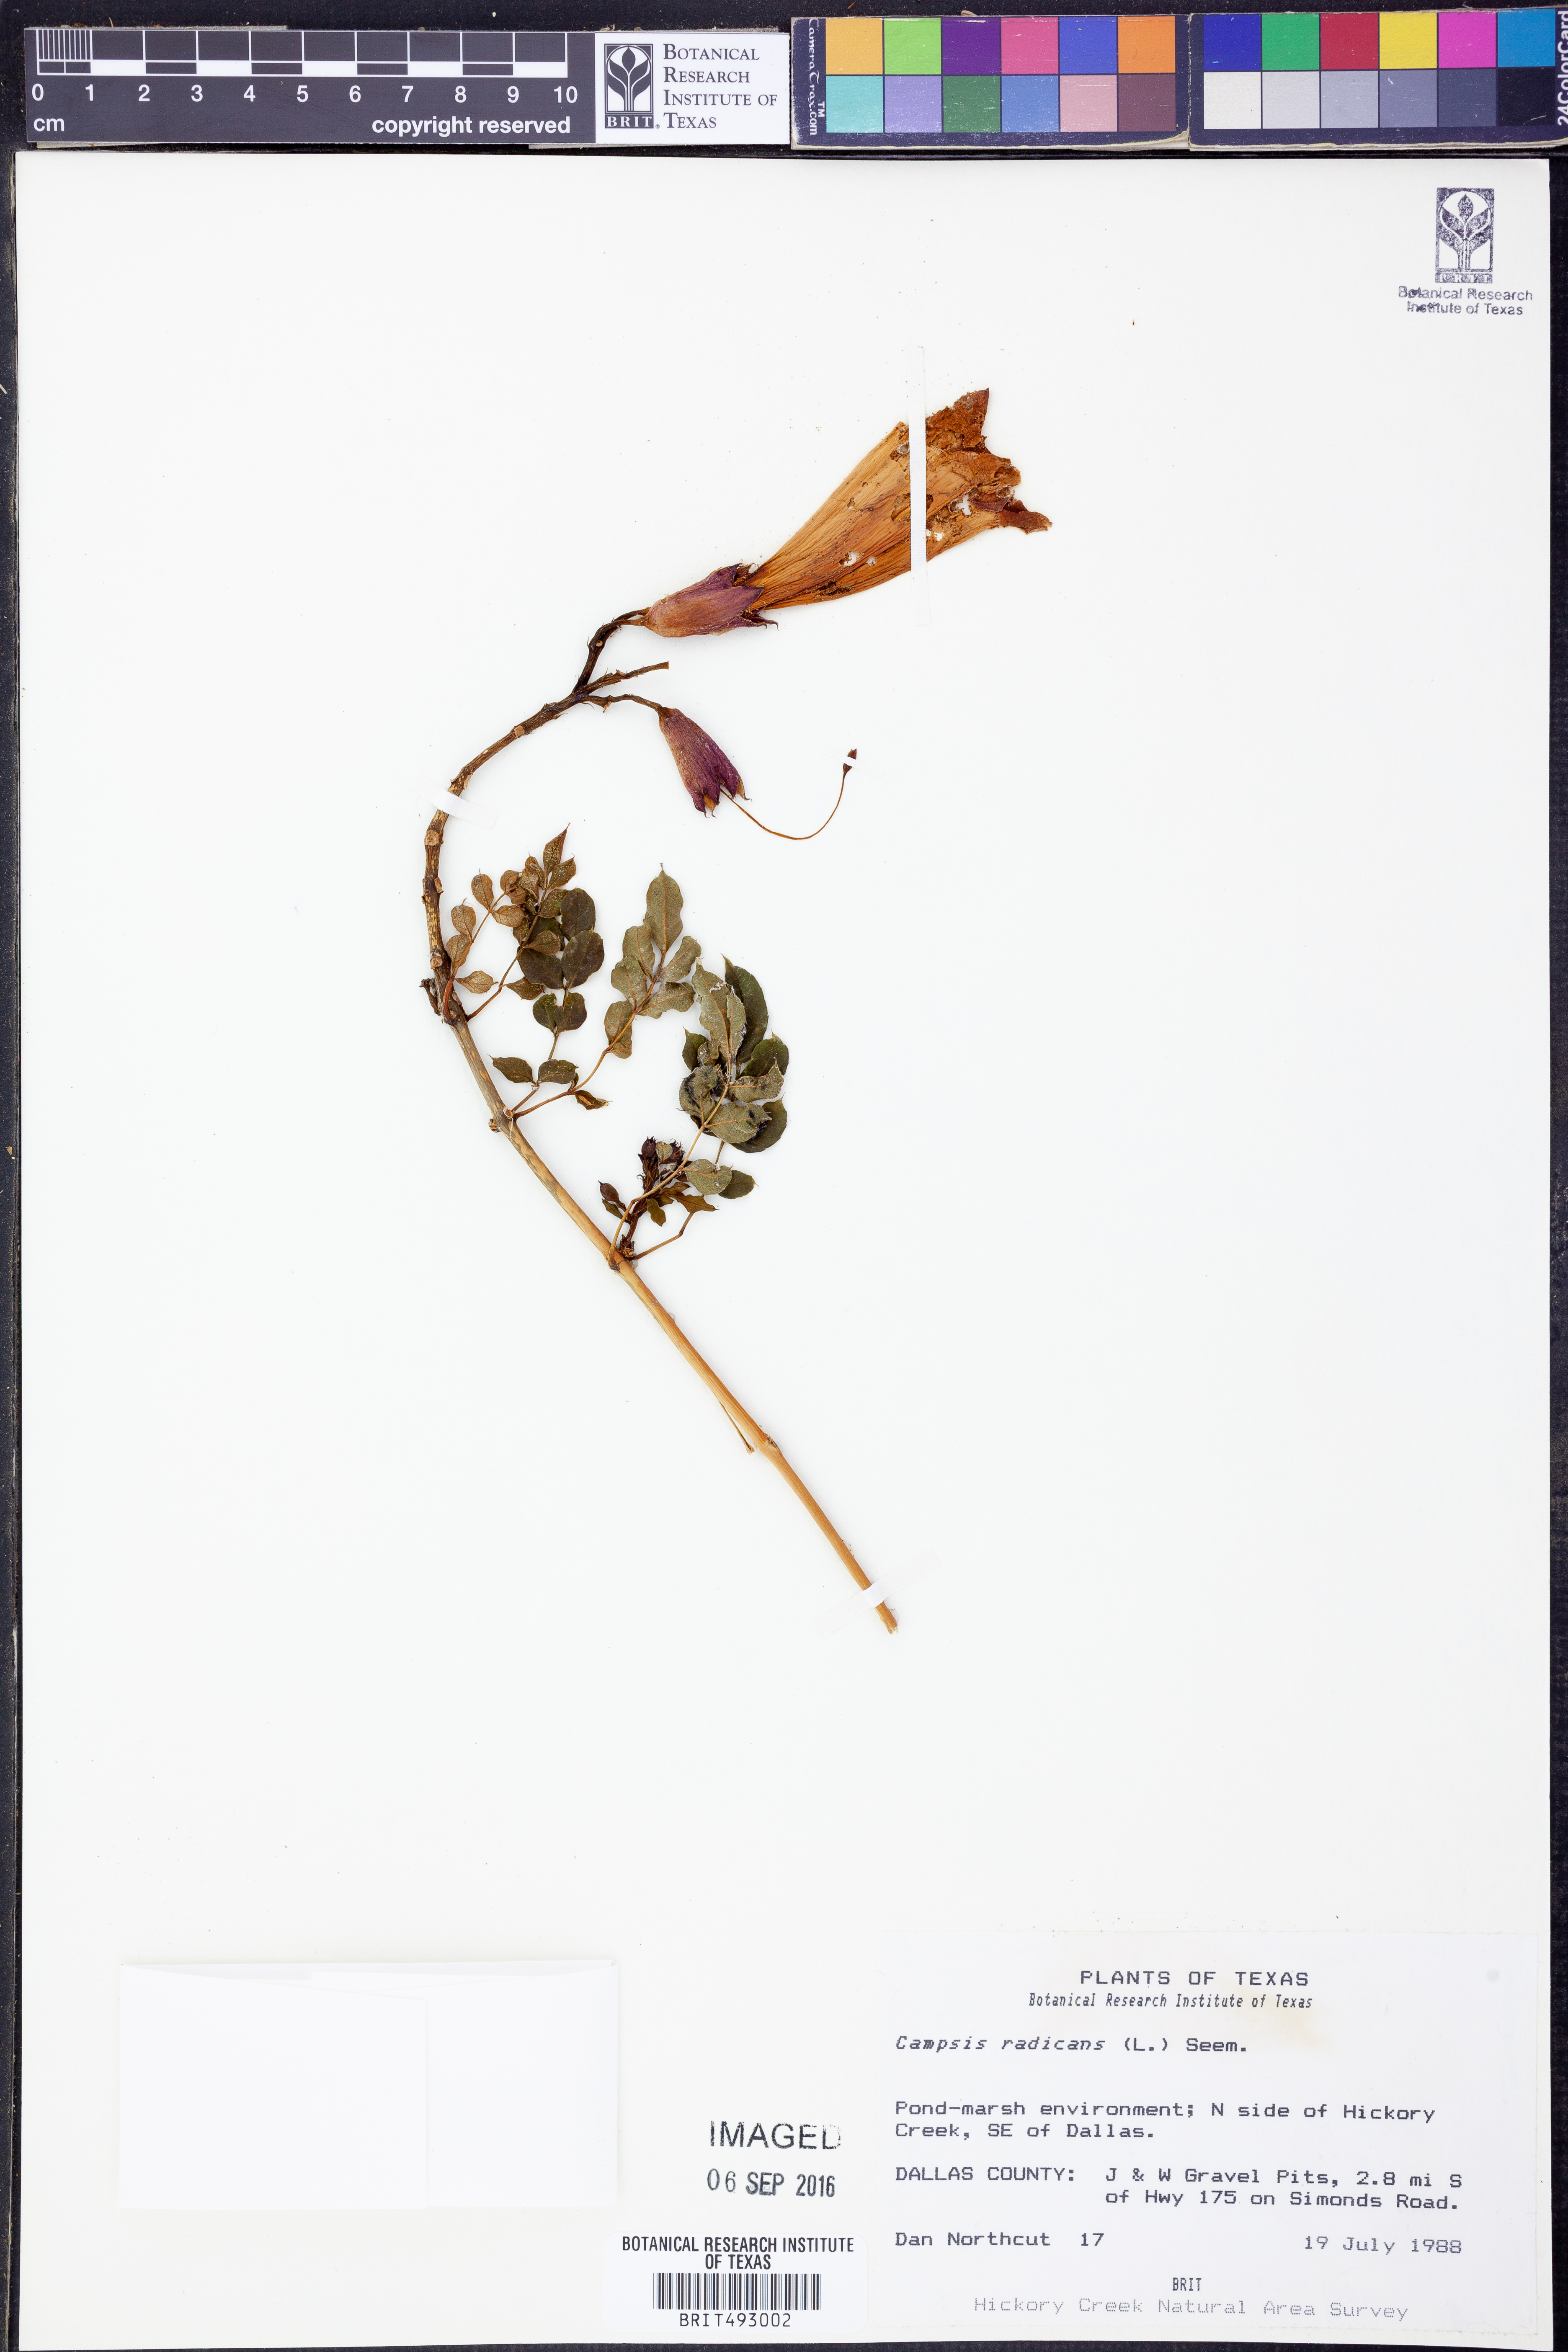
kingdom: Plantae
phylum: Tracheophyta
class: Magnoliopsida
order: Lamiales
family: Bignoniaceae
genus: Campsis
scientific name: Campsis radicans
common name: Trumpet-creeper
